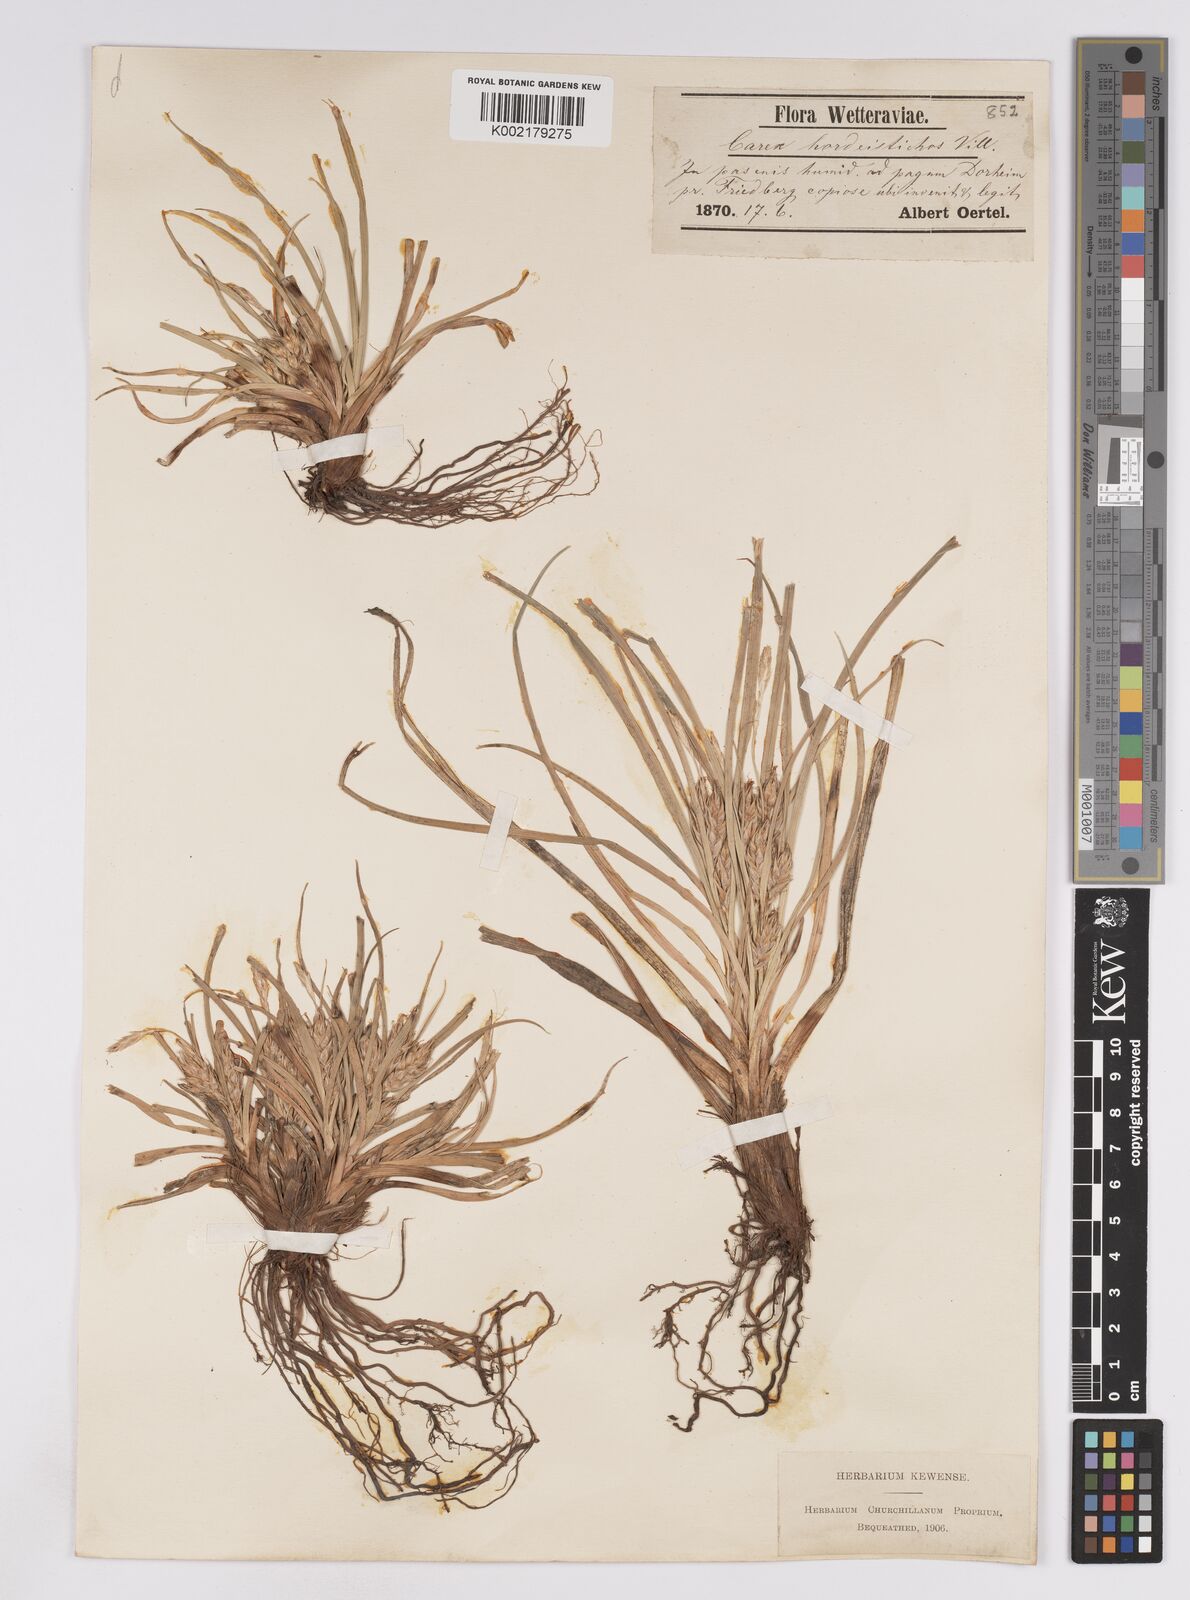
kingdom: Plantae
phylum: Tracheophyta
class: Liliopsida
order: Poales
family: Cyperaceae
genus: Carex
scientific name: Carex hordeistichos
